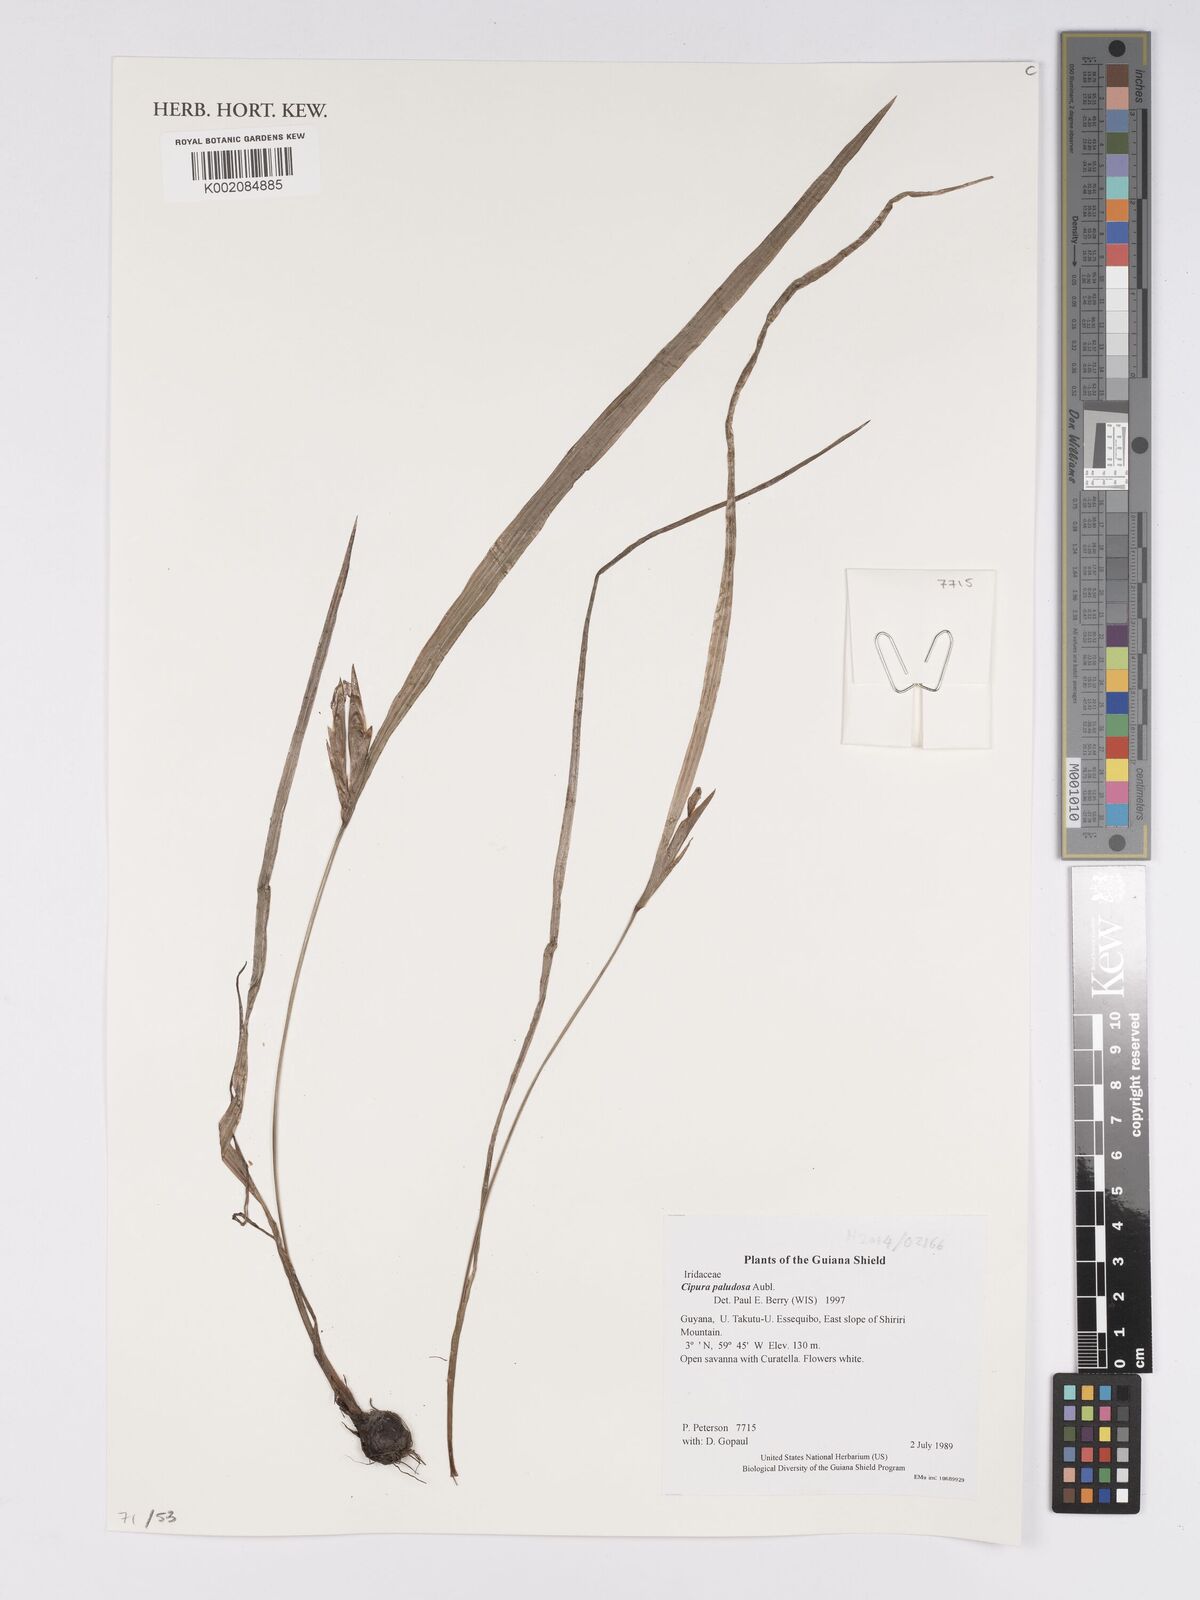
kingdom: Plantae
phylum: Tracheophyta
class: Liliopsida
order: Asparagales
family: Iridaceae
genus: Cipura
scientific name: Cipura paludosa
